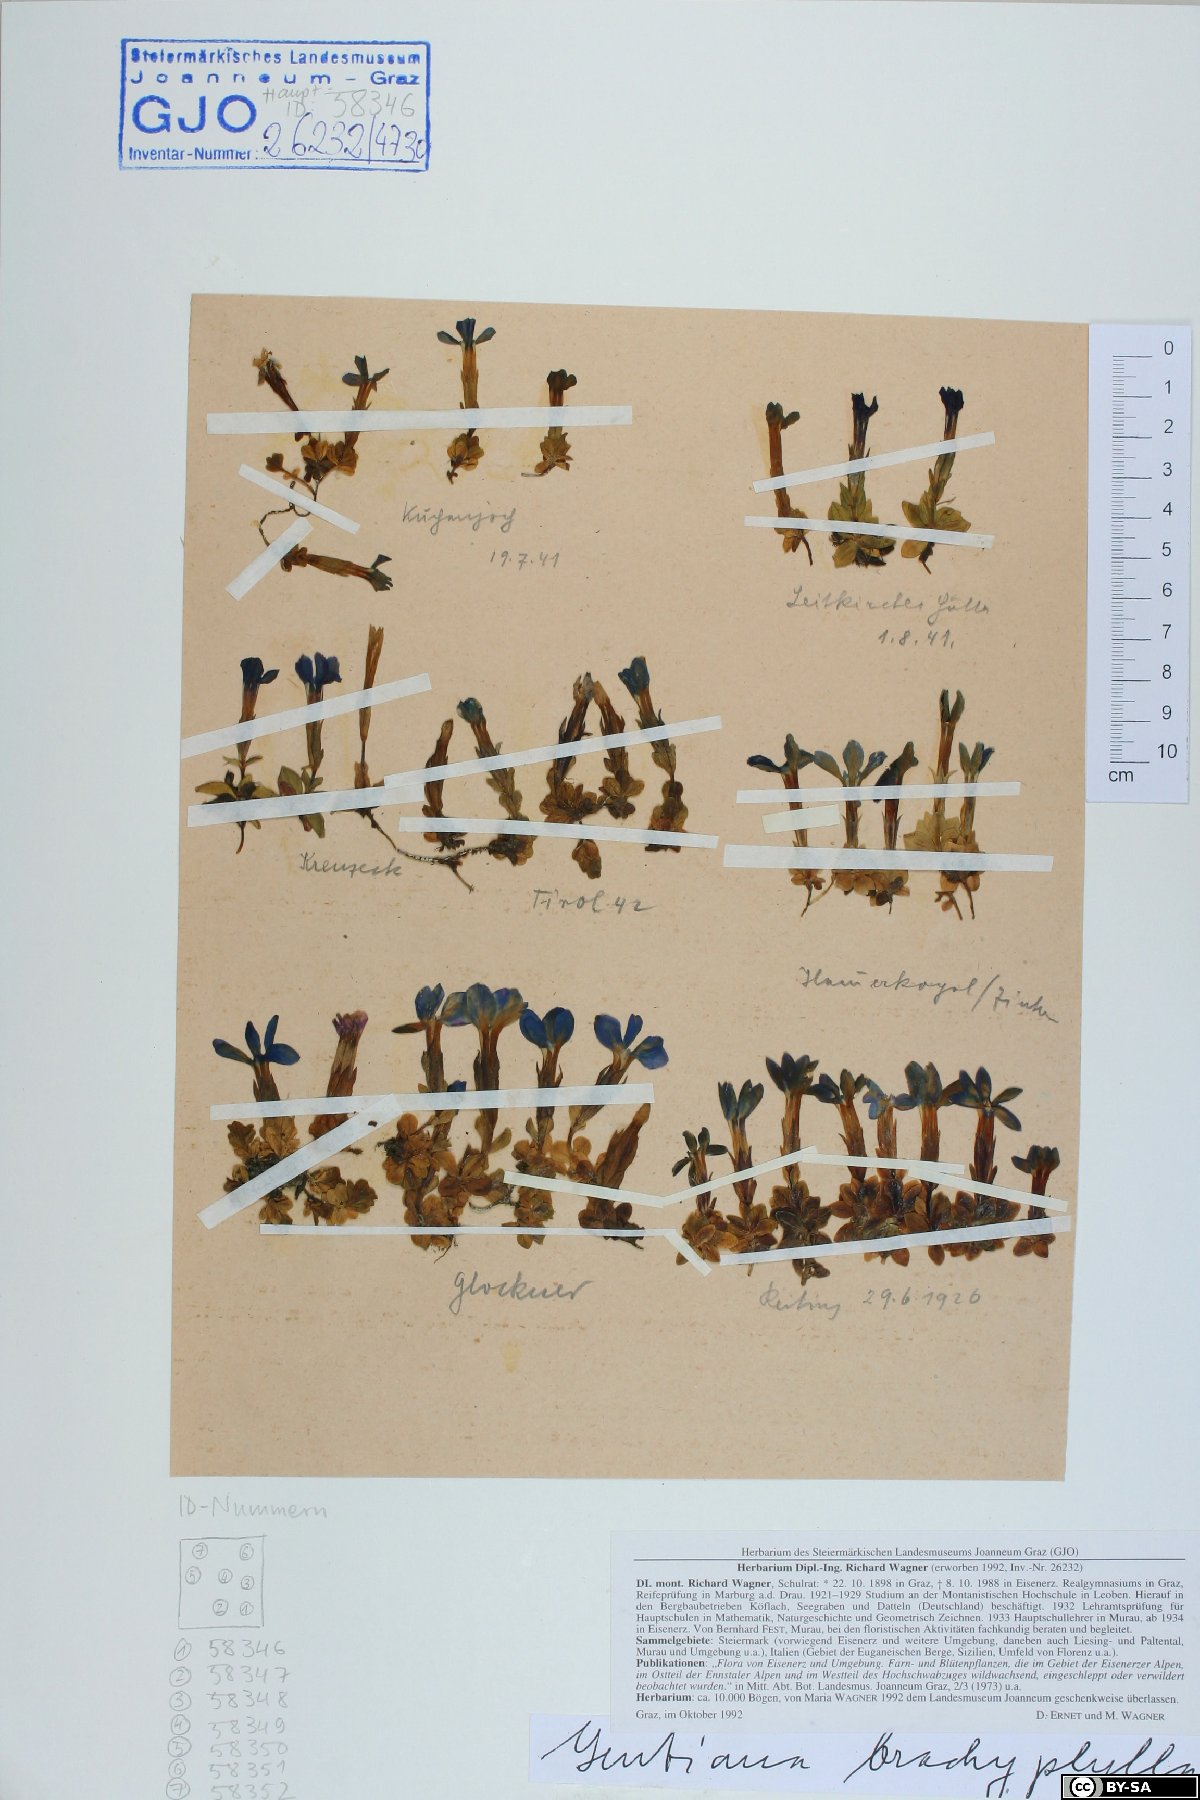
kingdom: Plantae
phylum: Tracheophyta
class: Magnoliopsida
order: Gentianales
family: Gentianaceae
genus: Gentiana
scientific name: Gentiana brachyphylla
